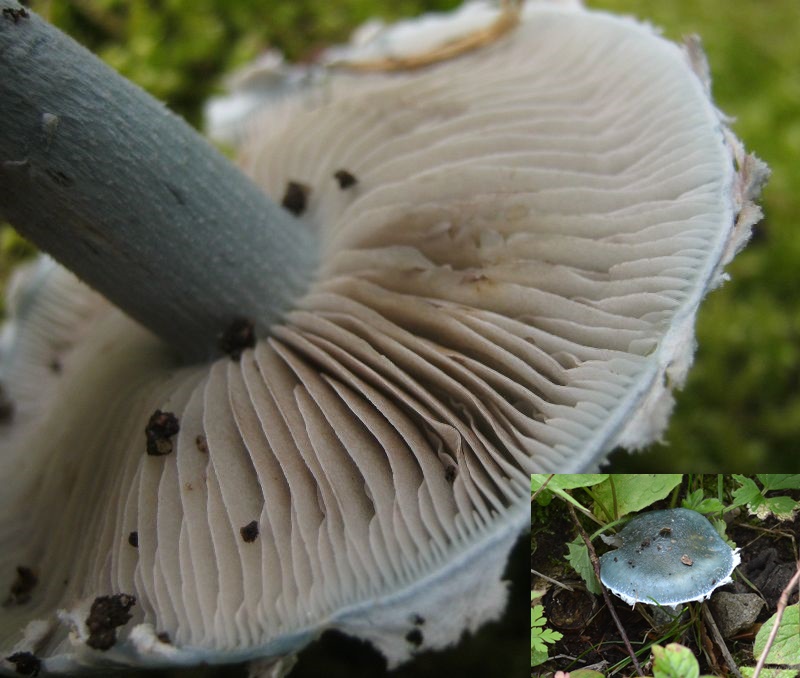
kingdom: Fungi
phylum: Basidiomycota
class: Agaricomycetes
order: Agaricales
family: Strophariaceae
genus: Stropharia
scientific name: Stropharia cyanea
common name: blågrøn bredblad
